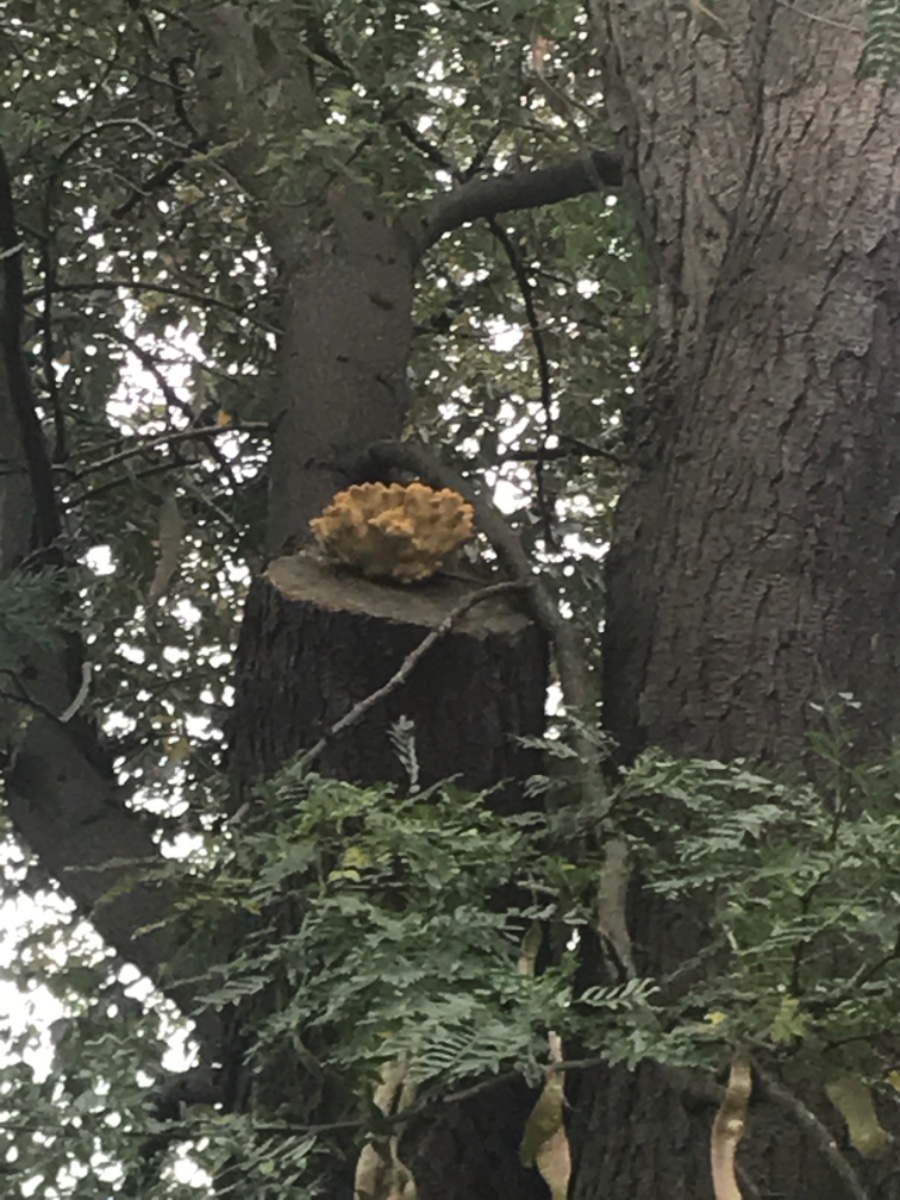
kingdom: Fungi
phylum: Basidiomycota
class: Agaricomycetes
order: Polyporales
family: Laetiporaceae
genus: Laetiporus
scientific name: Laetiporus sulphureus
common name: svovlporesvamp
